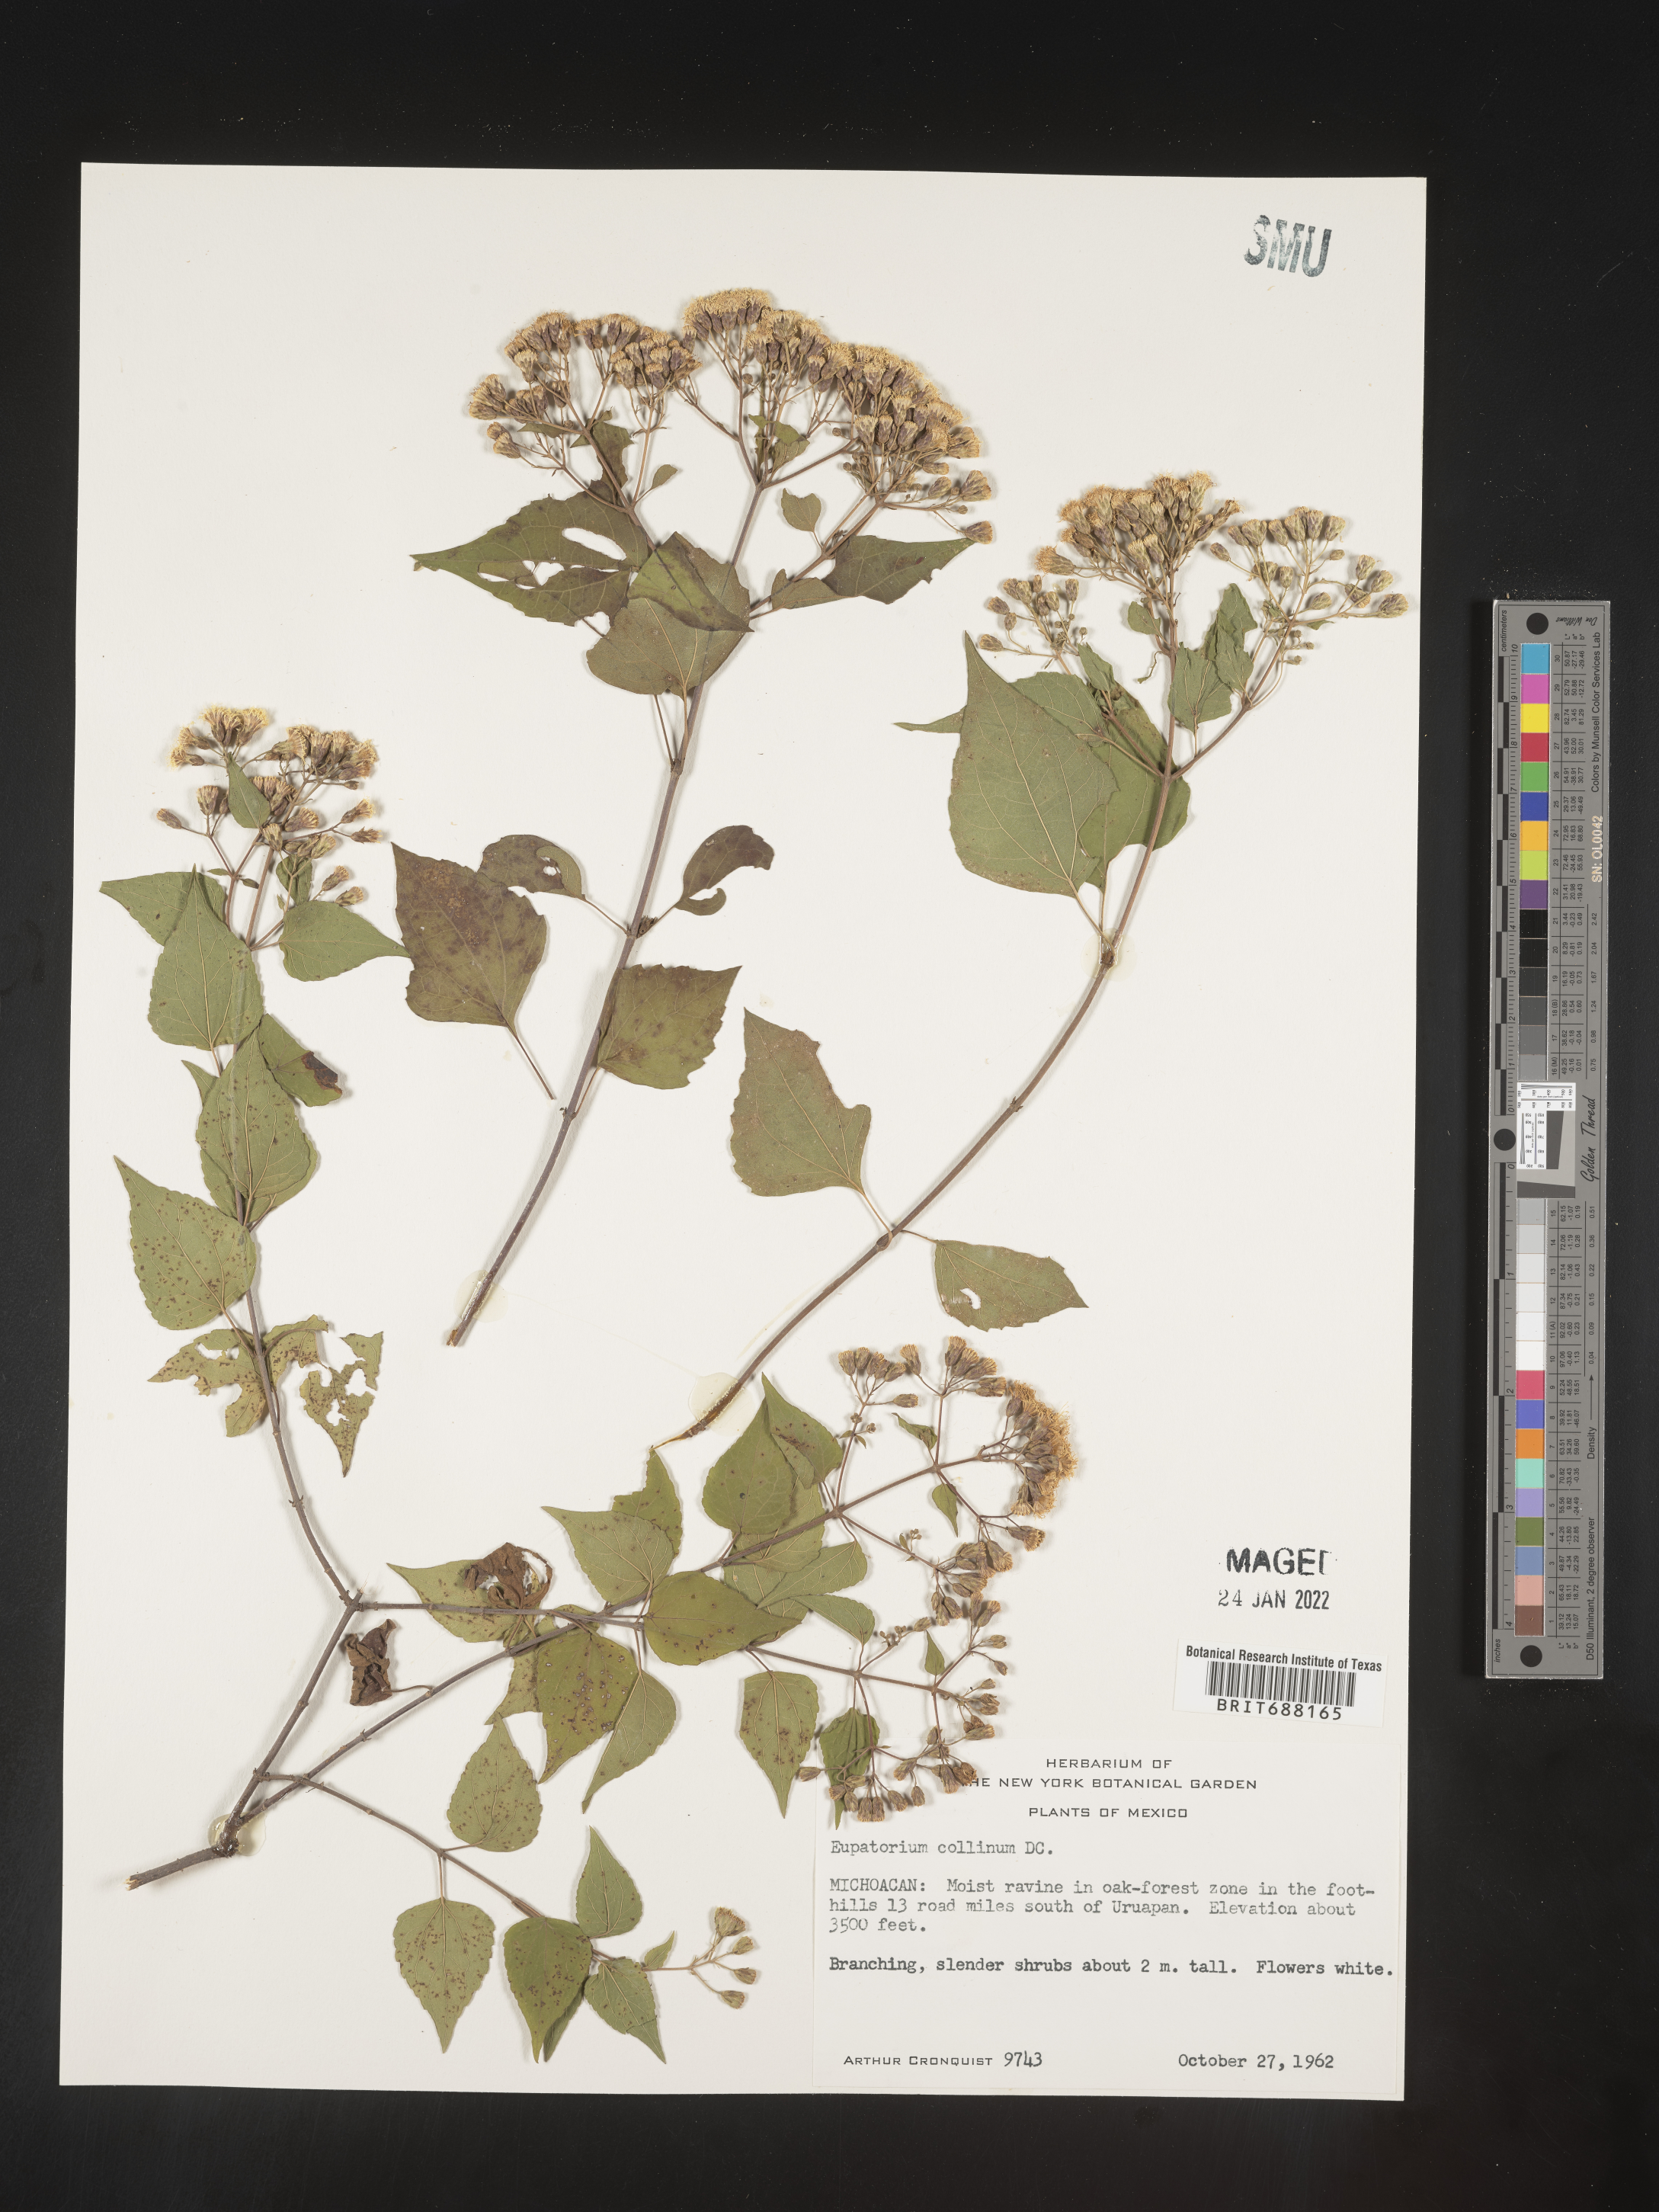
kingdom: Plantae
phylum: Tracheophyta
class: Magnoliopsida
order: Asterales
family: Asteraceae
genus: Chromolaena
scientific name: Chromolaena collina
